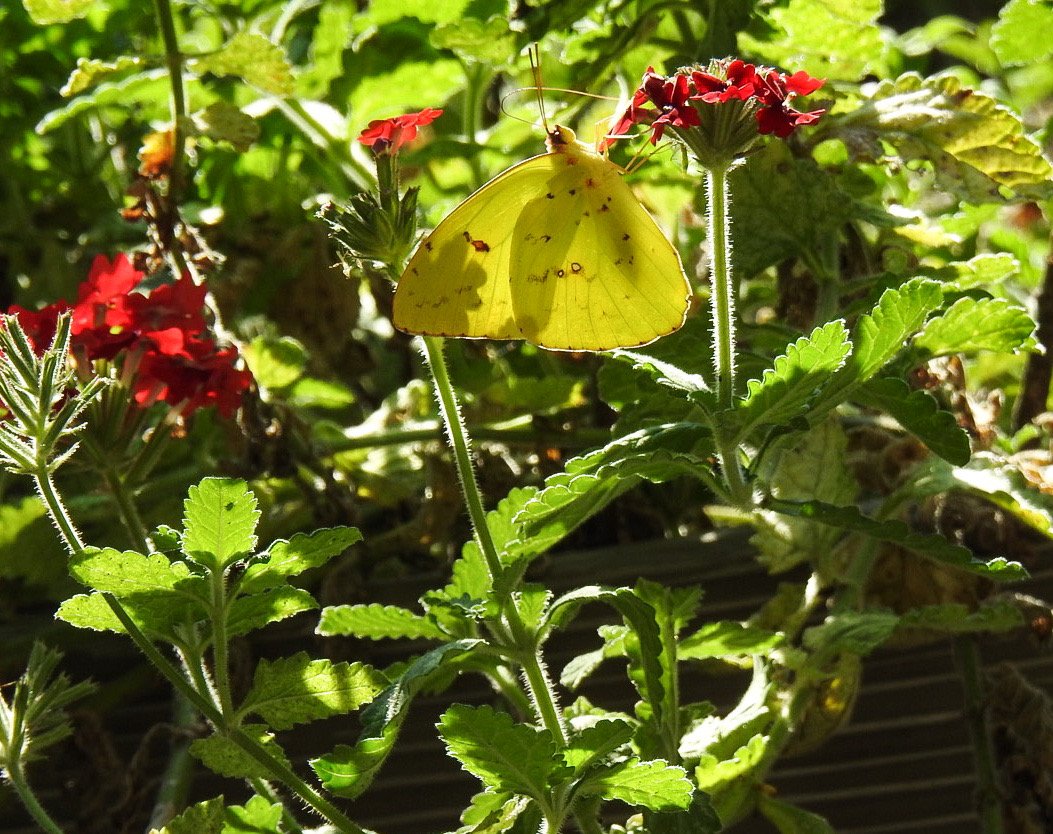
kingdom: Animalia
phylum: Arthropoda
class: Insecta
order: Lepidoptera
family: Pieridae
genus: Phoebis
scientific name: Phoebis sennae
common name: Cloudless Sulphur
